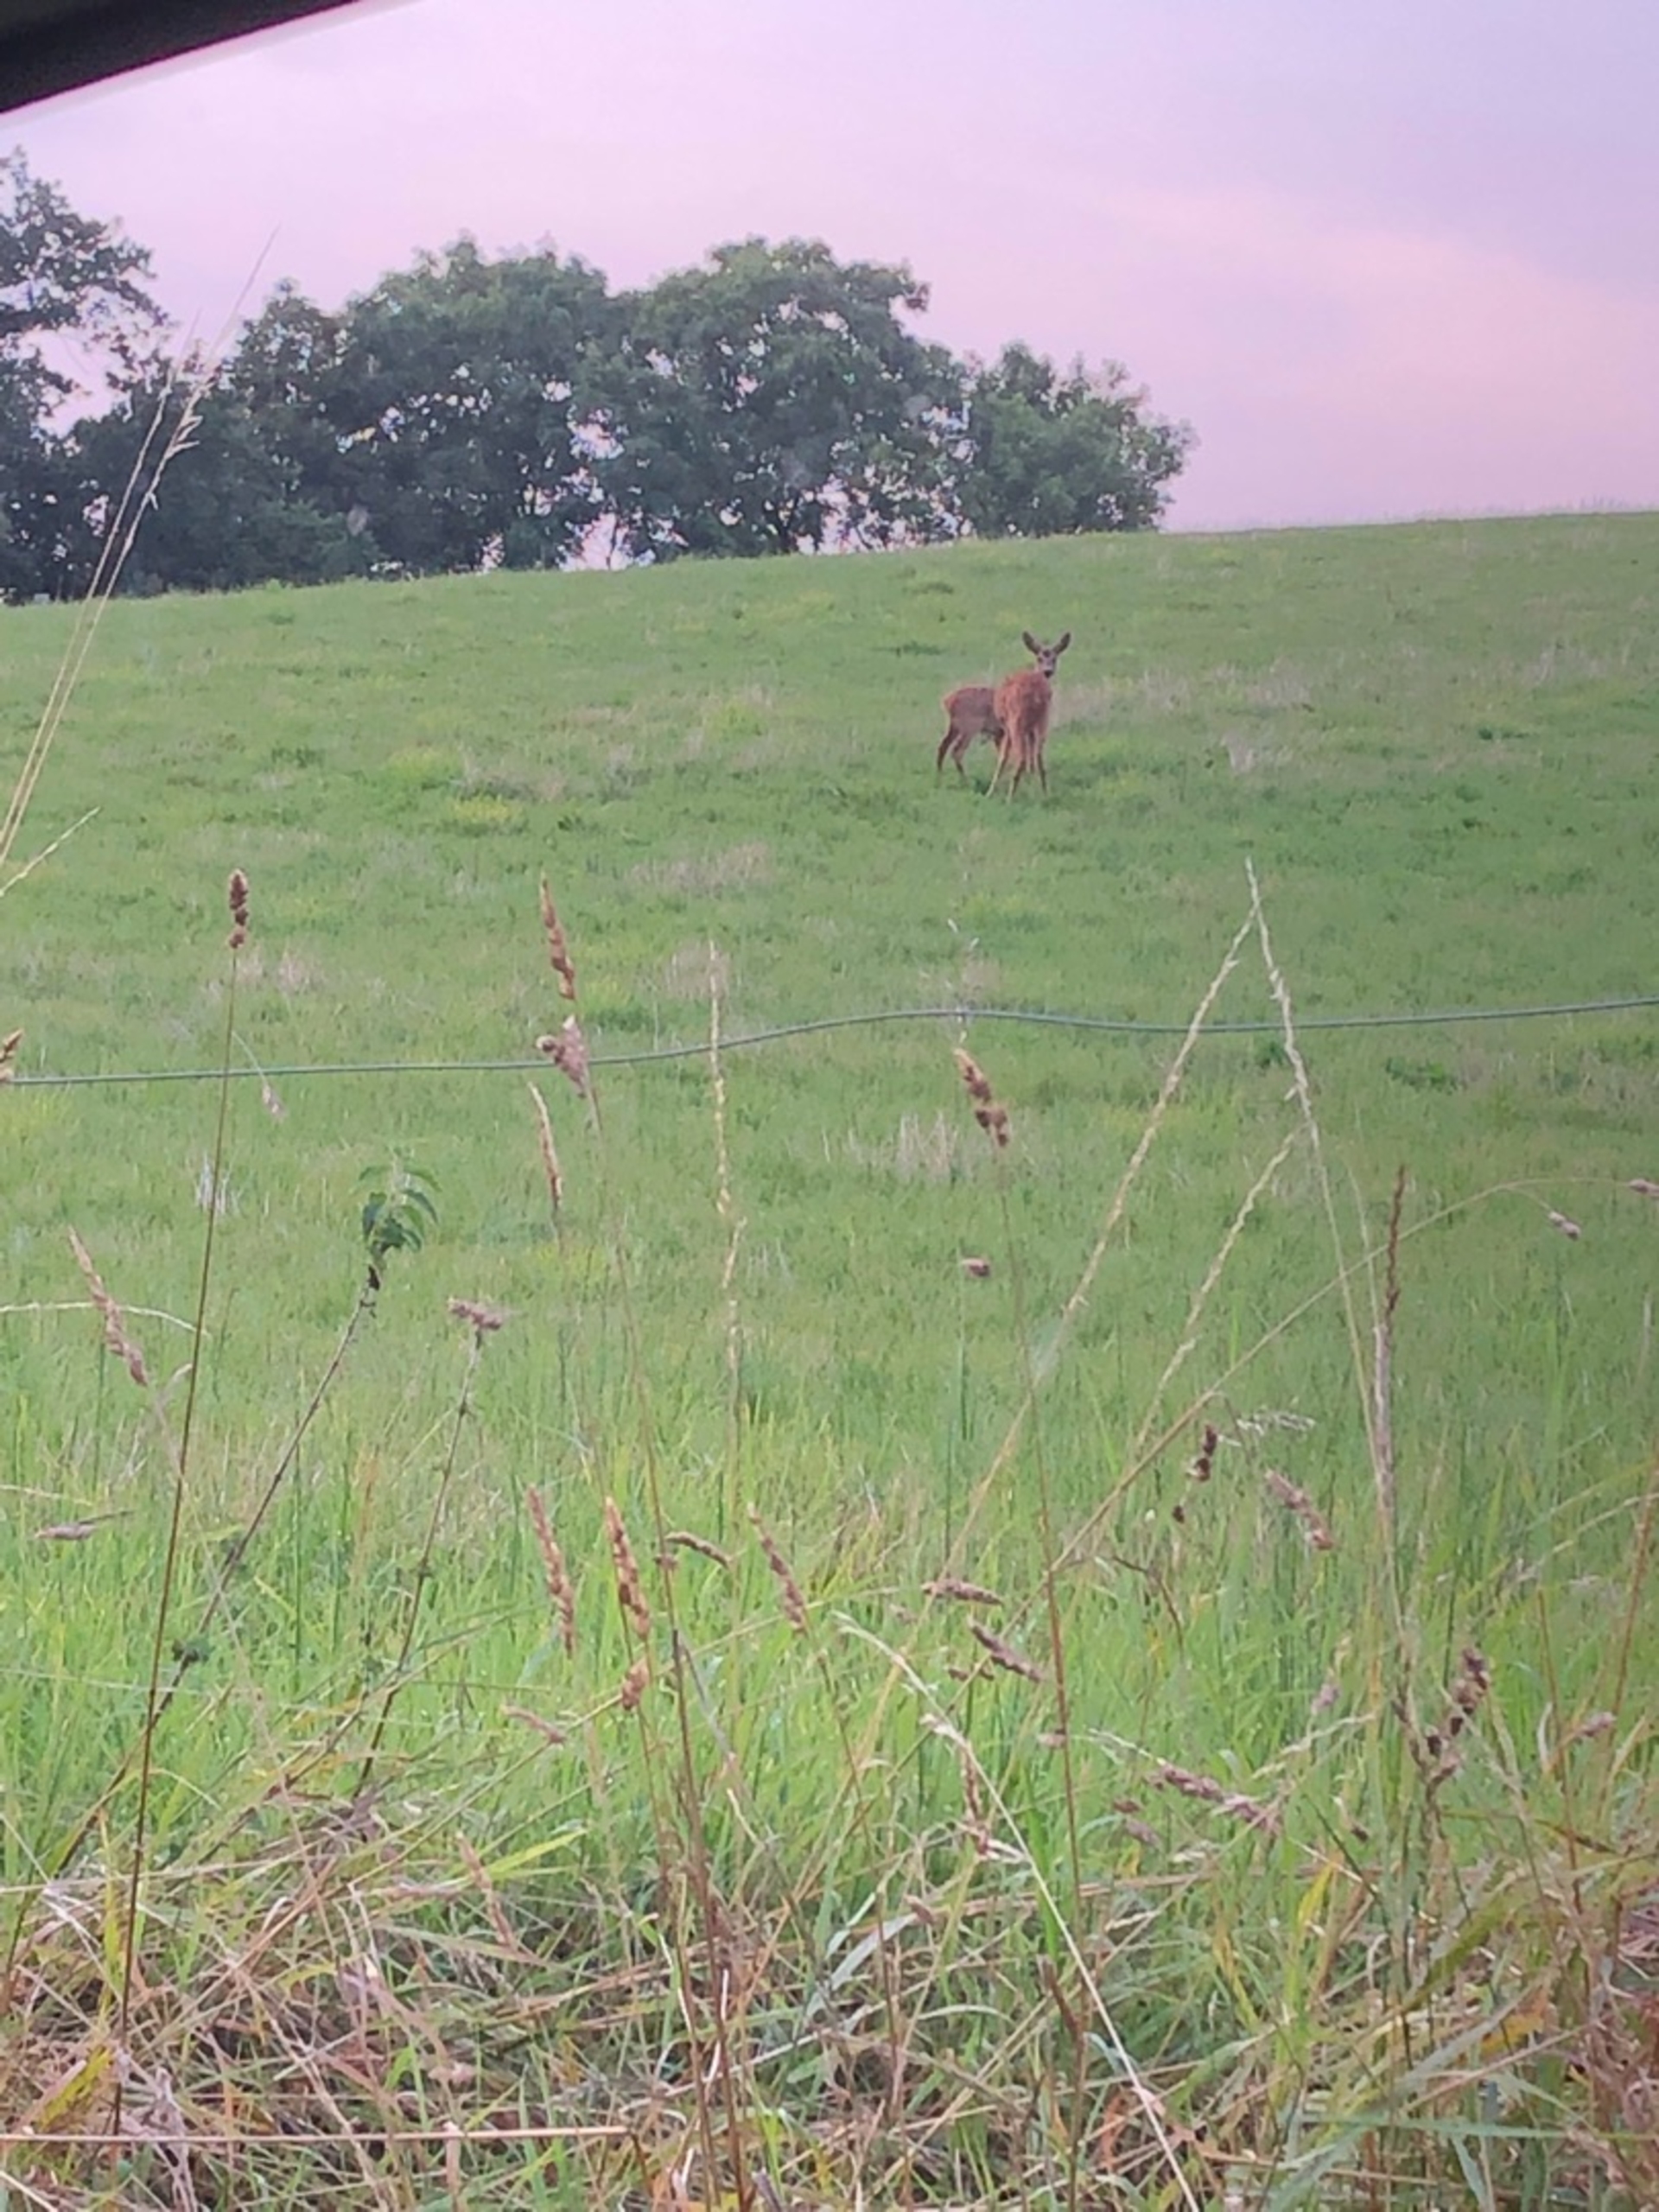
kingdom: Animalia
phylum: Chordata
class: Mammalia
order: Artiodactyla
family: Cervidae
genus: Capreolus
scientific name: Capreolus capreolus
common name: Rådyr
